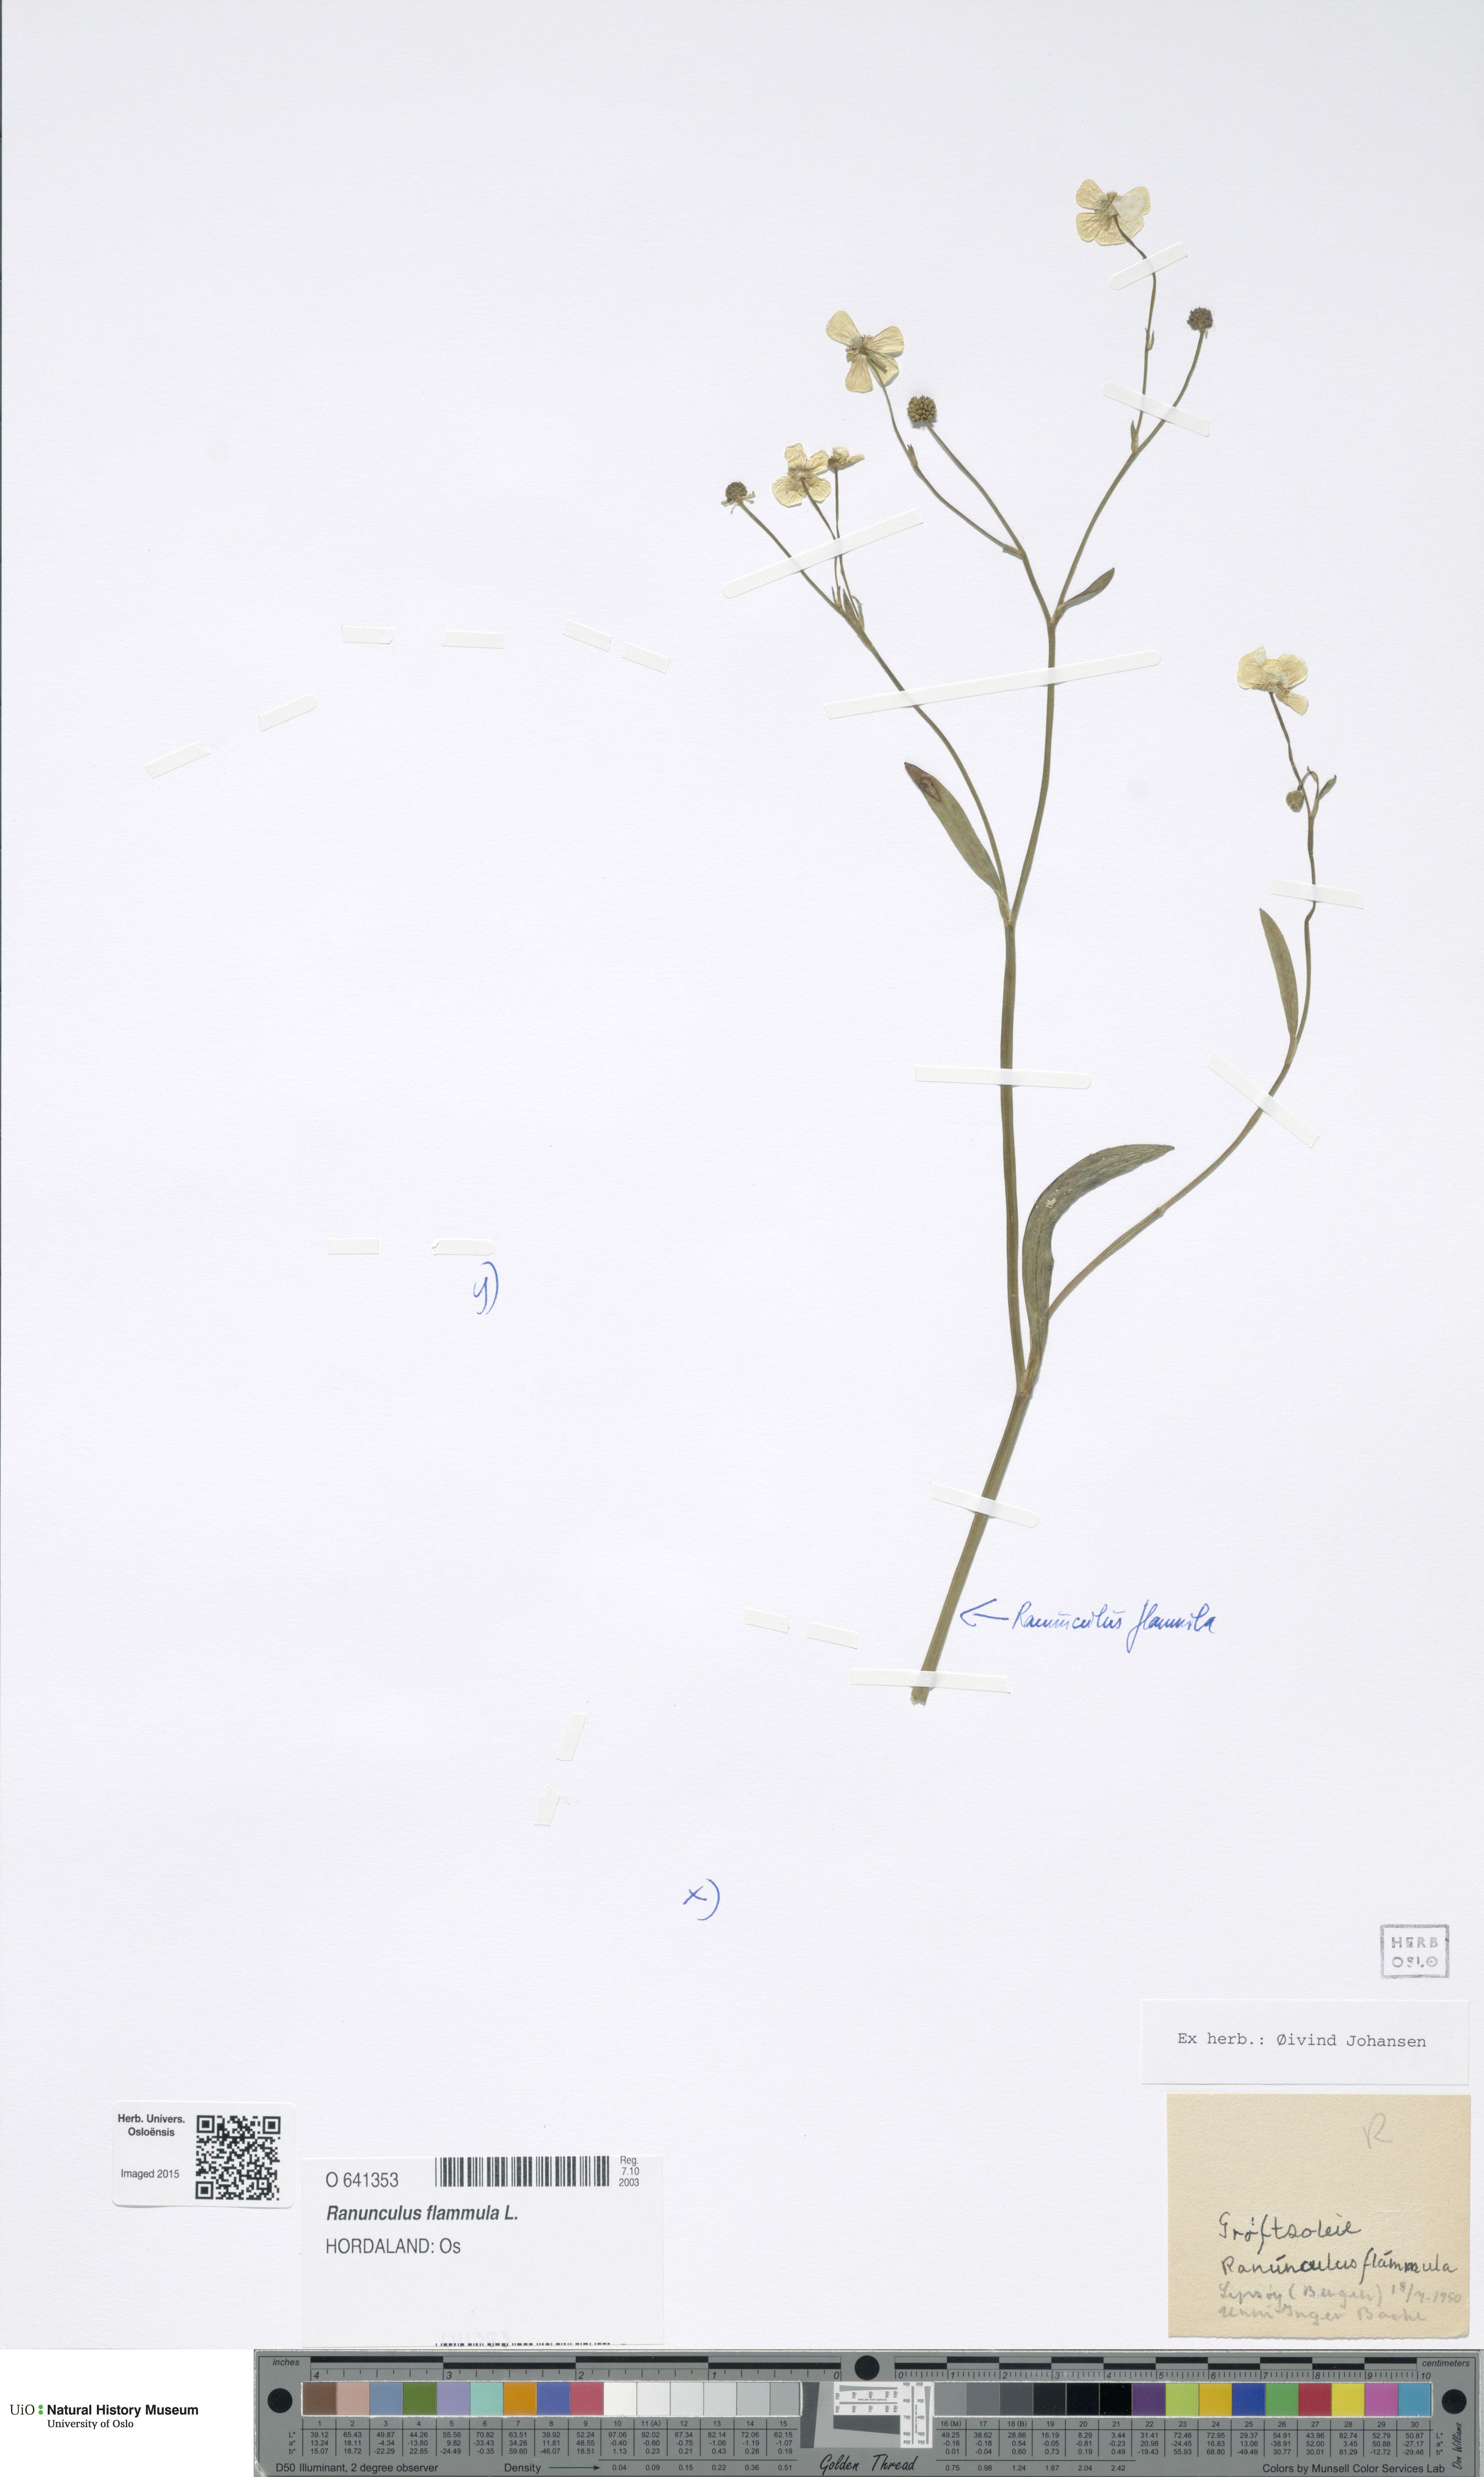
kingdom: Plantae
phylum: Tracheophyta
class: Magnoliopsida
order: Ranunculales
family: Ranunculaceae
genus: Ranunculus
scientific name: Ranunculus flammula
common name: Lesser spearwort
